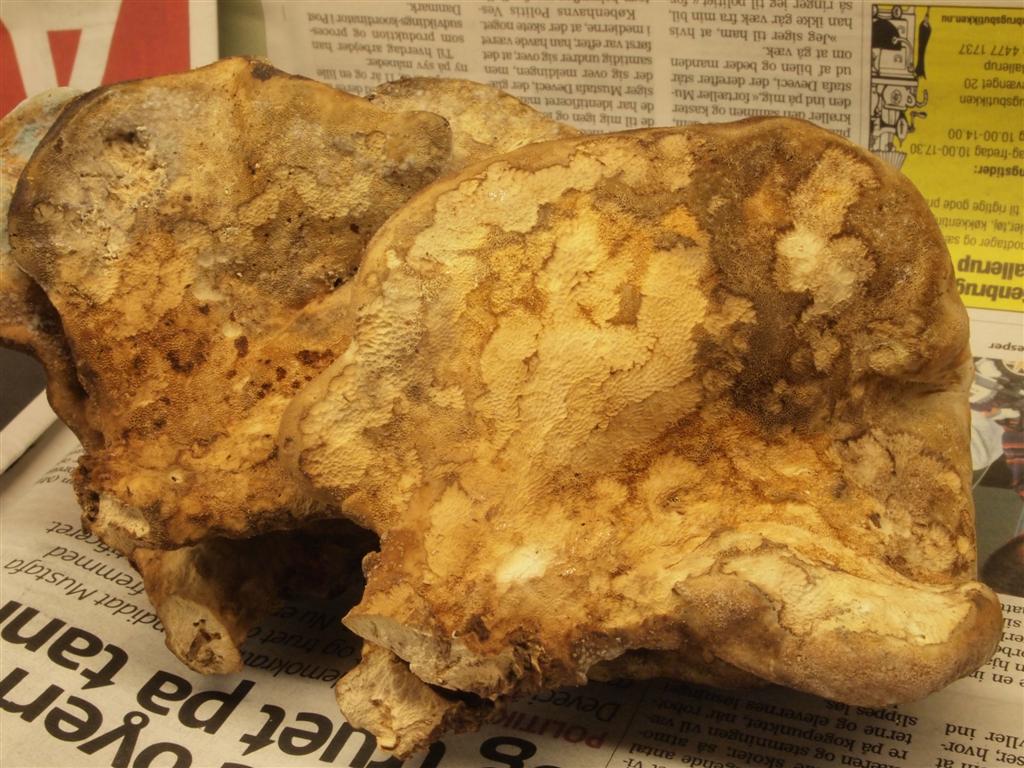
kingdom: Fungi
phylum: Basidiomycota
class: Agaricomycetes
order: Polyporales
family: Laetiporaceae
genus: Laetiporus
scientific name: Laetiporus sulphureus
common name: svovlporesvamp
